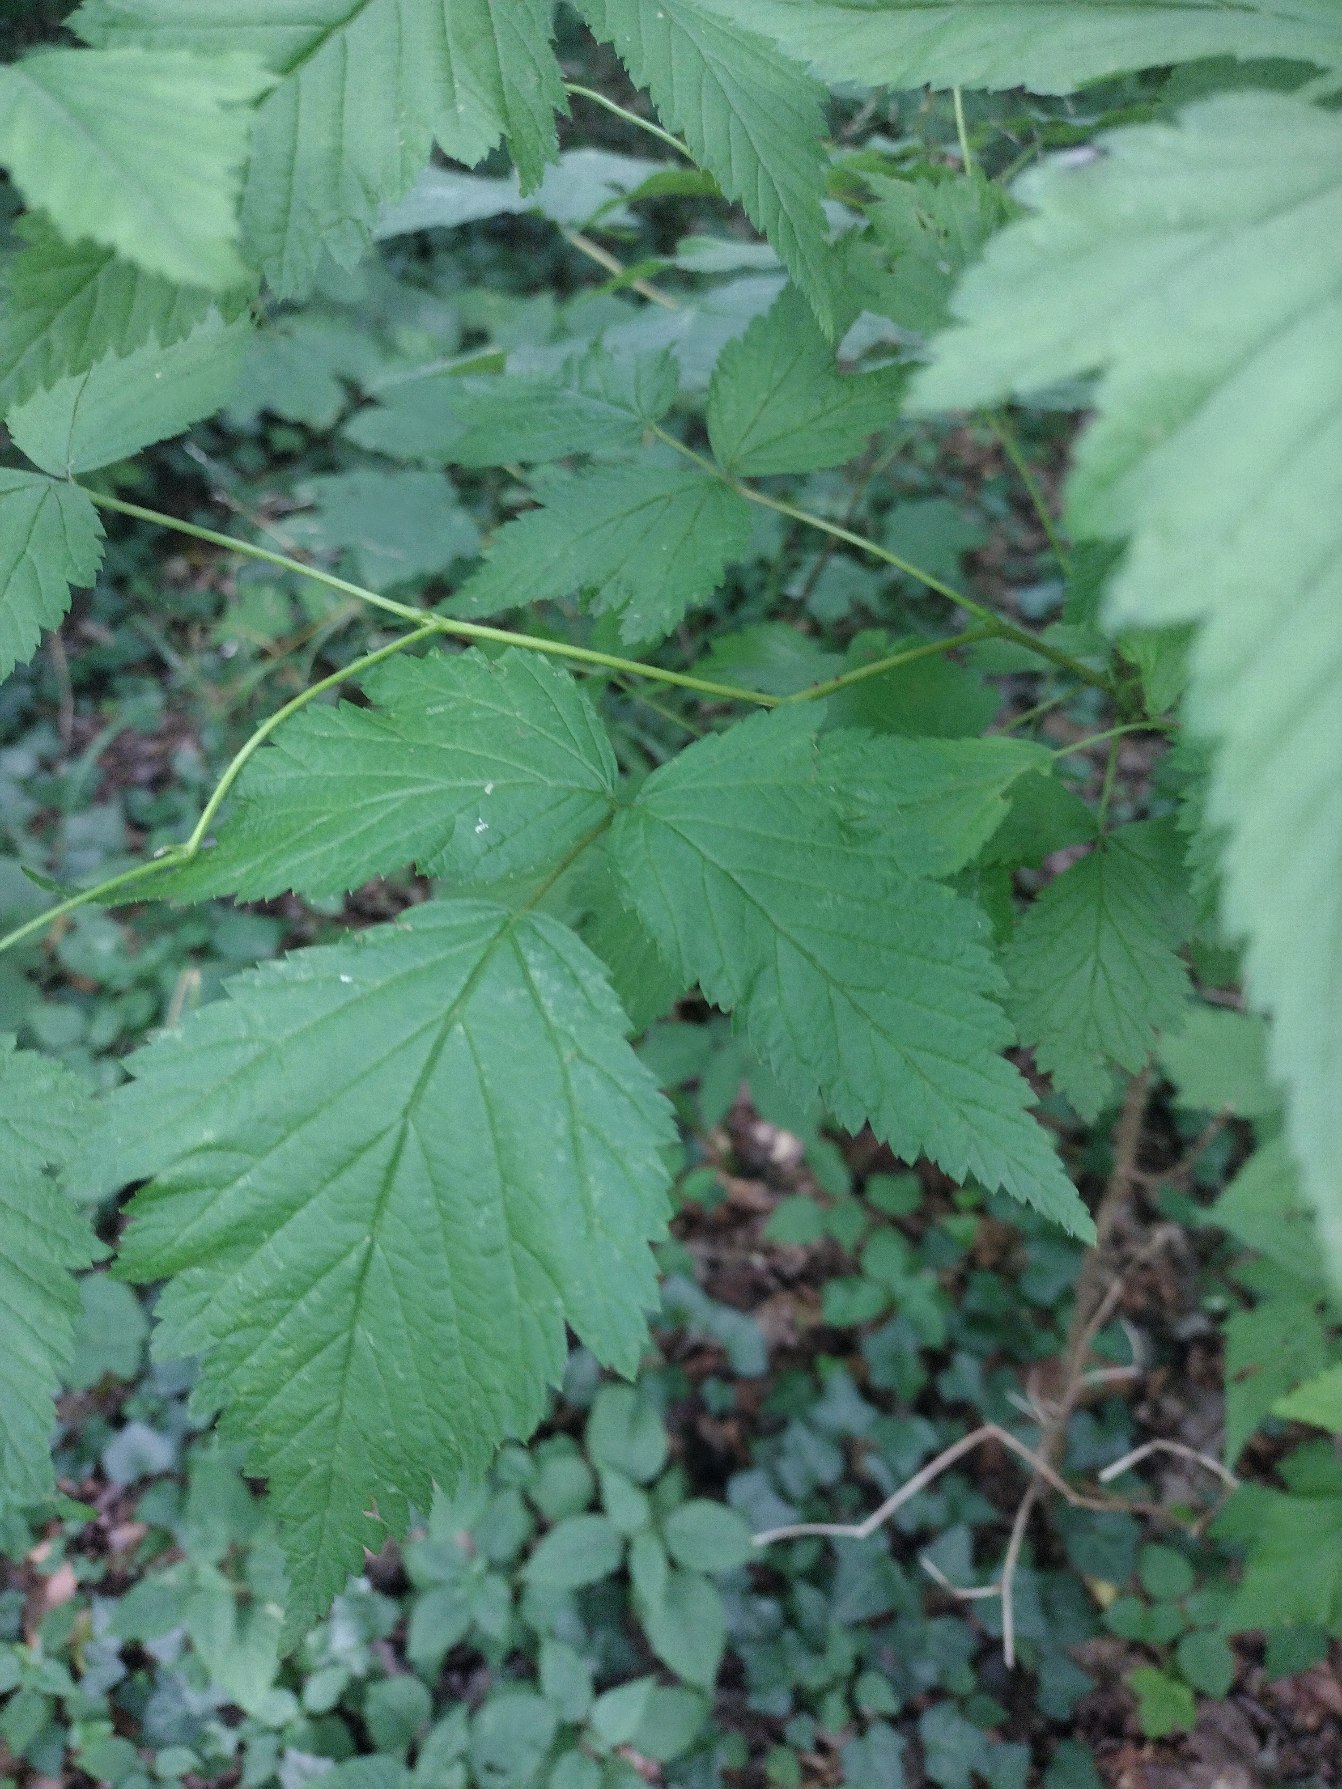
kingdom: Plantae
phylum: Tracheophyta
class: Magnoliopsida
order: Rosales
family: Rosaceae
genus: Rubus
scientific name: Rubus spectabilis
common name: Laksebær
